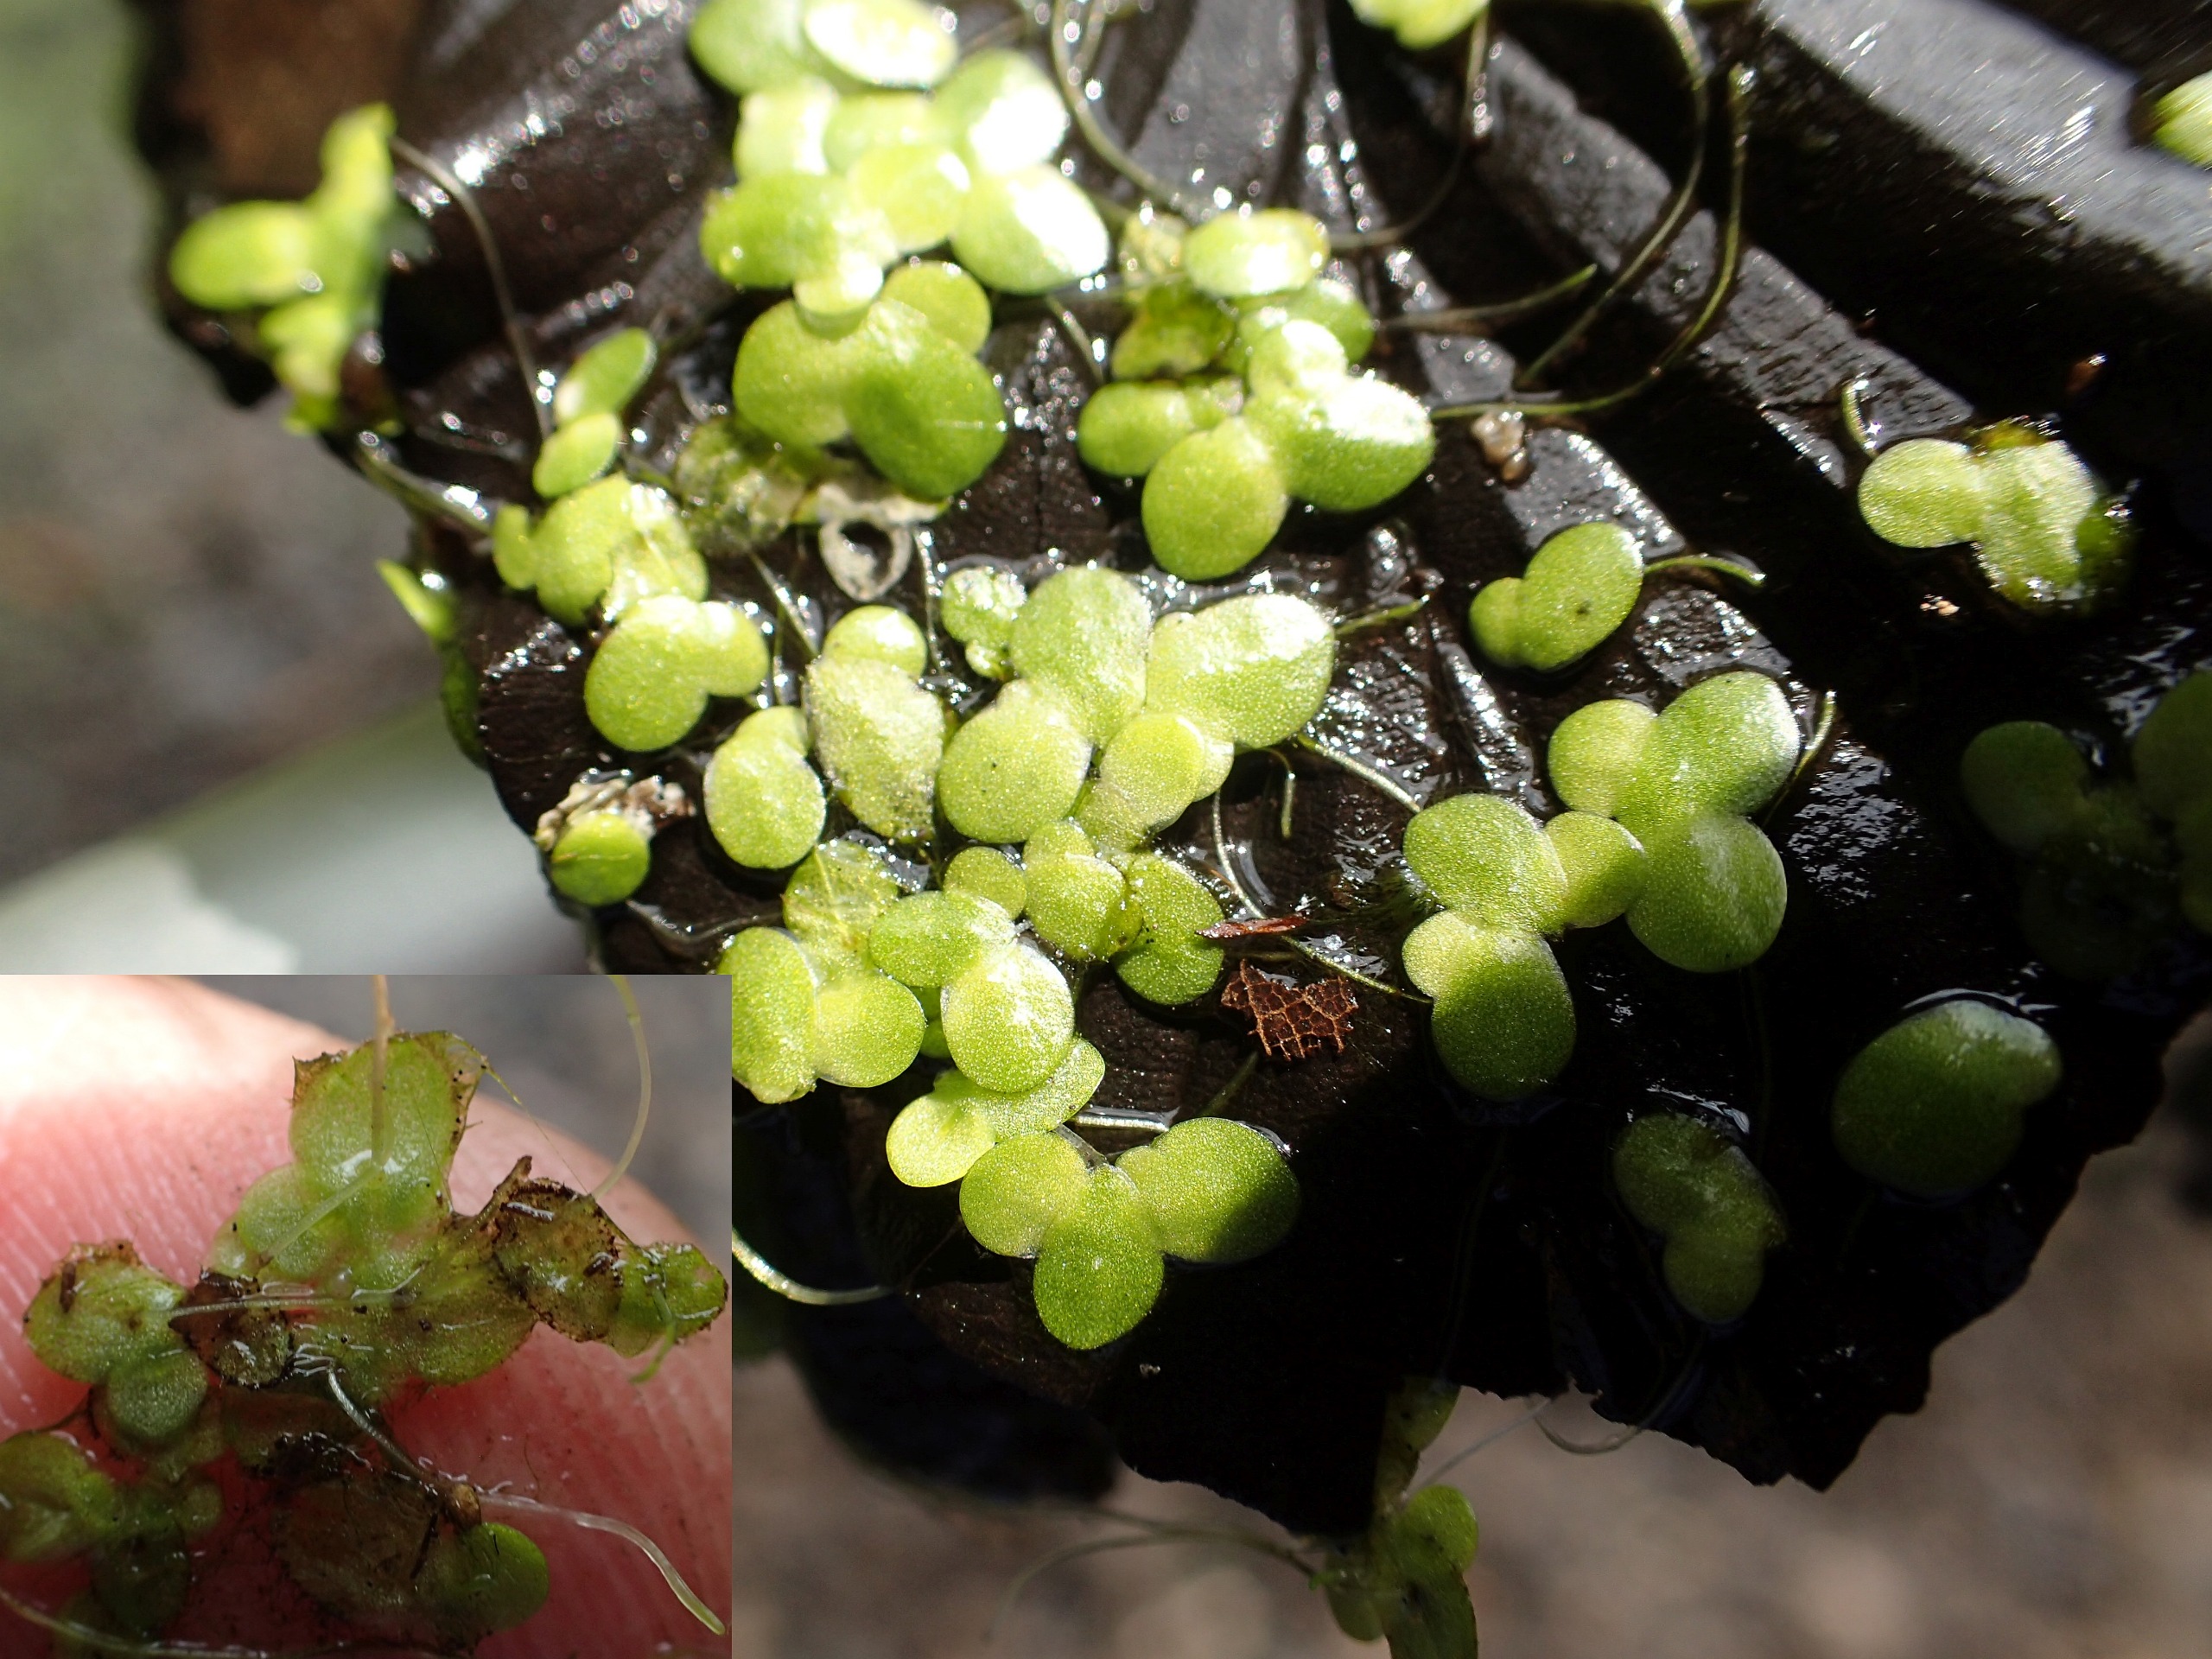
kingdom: Plantae
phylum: Tracheophyta
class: Liliopsida
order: Alismatales
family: Araceae
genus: Lemna
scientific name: Lemna minor
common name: Liden andemad
